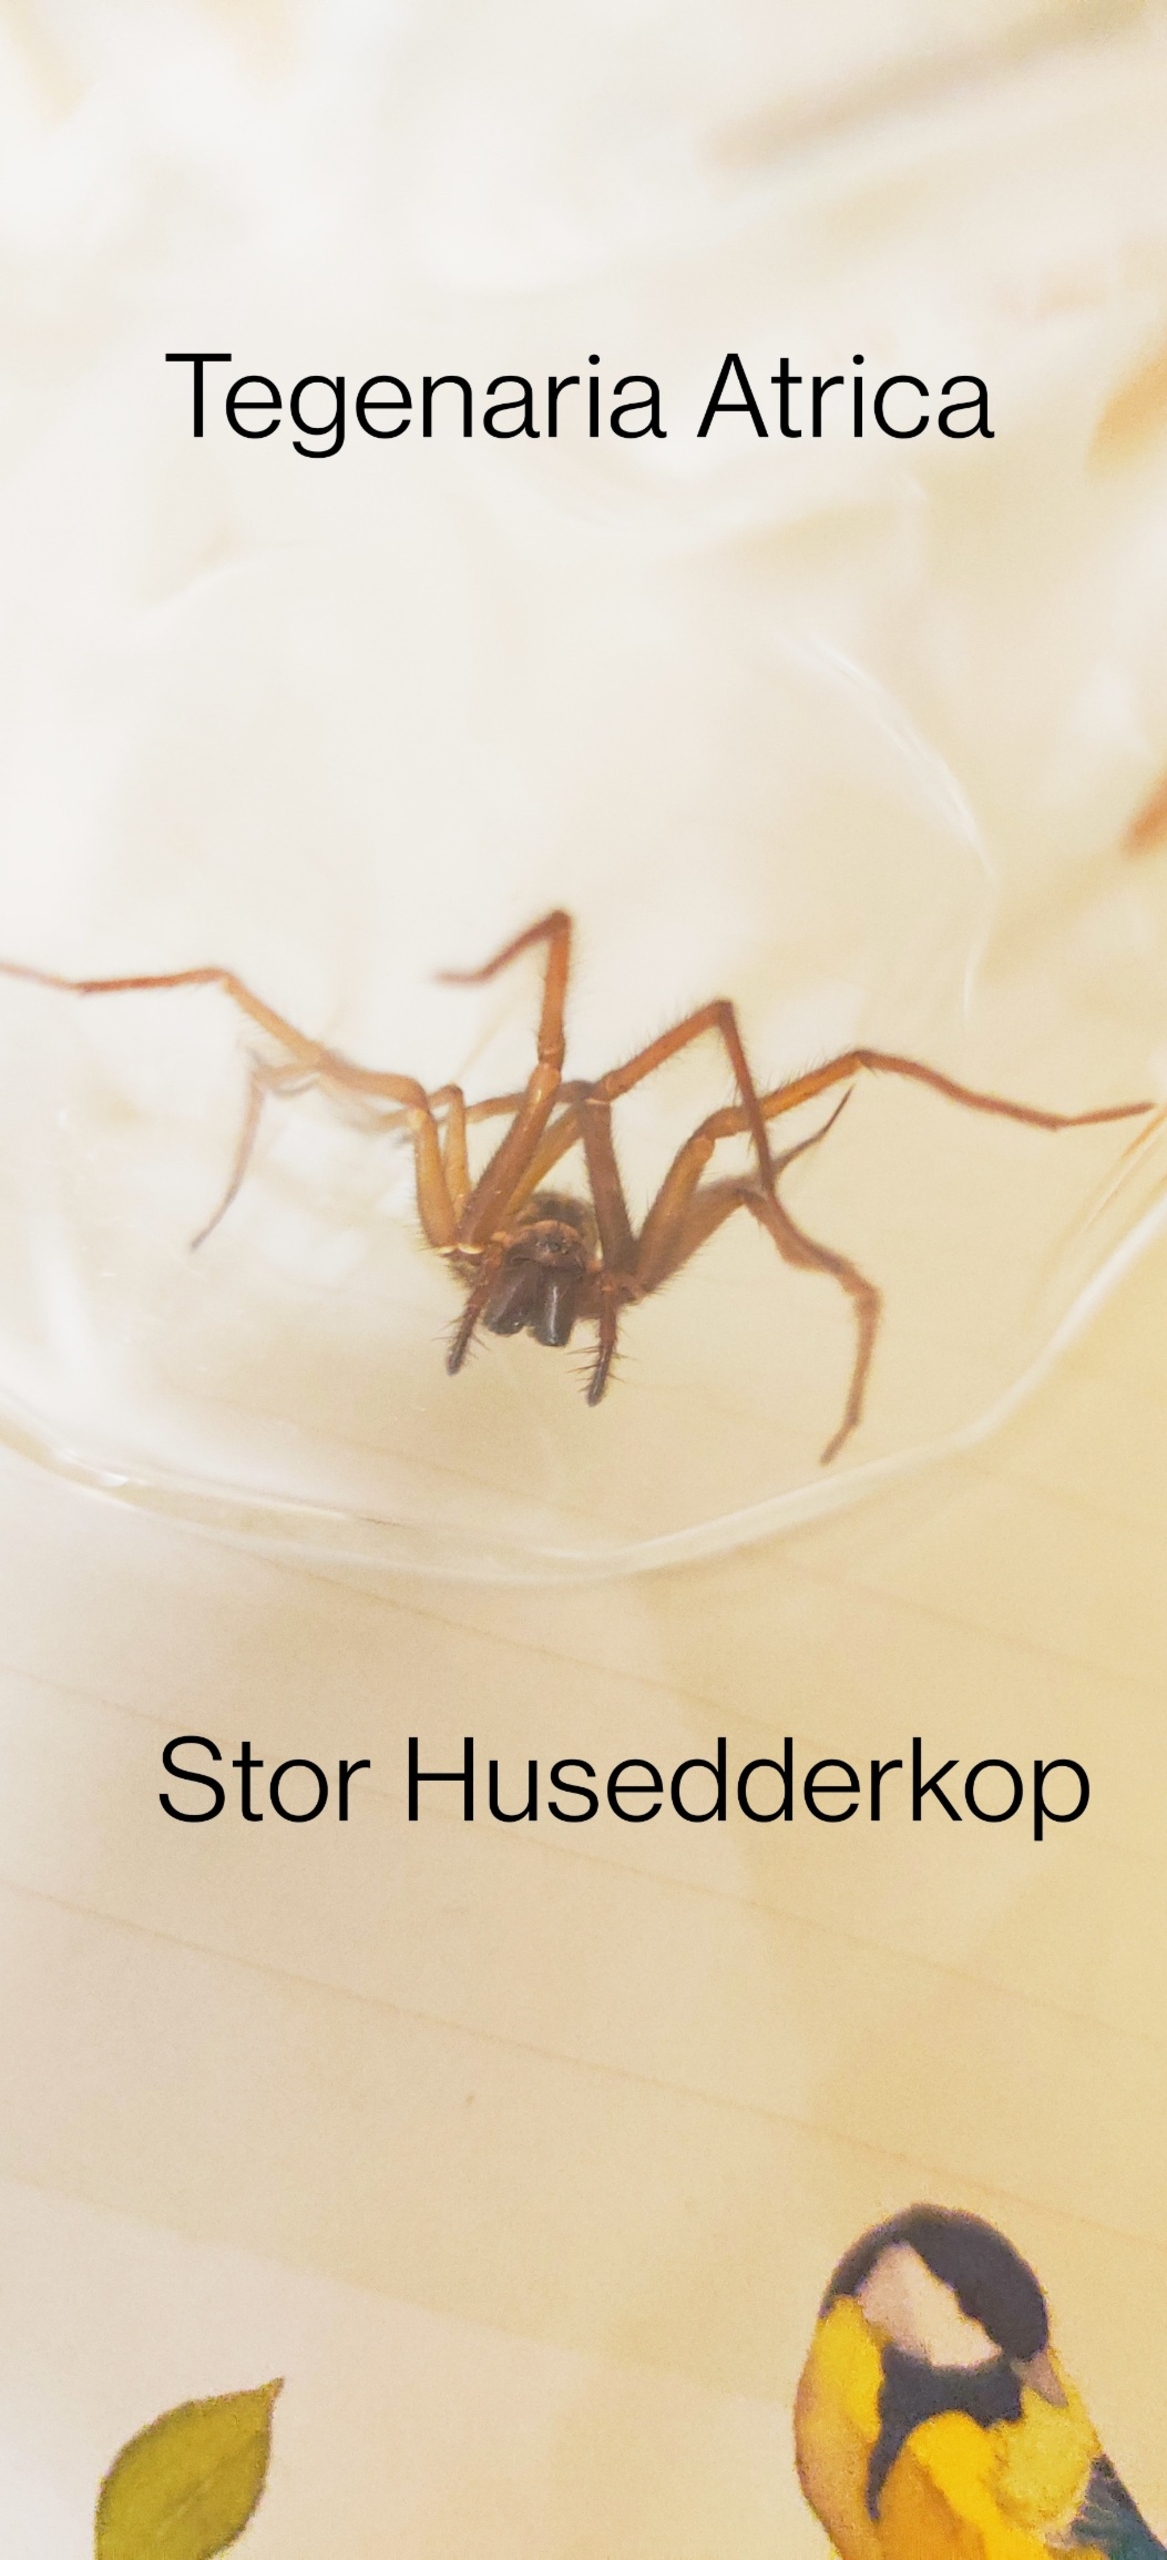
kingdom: Animalia
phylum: Arthropoda
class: Arachnida
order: Araneae
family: Agelenidae
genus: Eratigena
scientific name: Eratigena atrica
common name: Stor husedderkop
